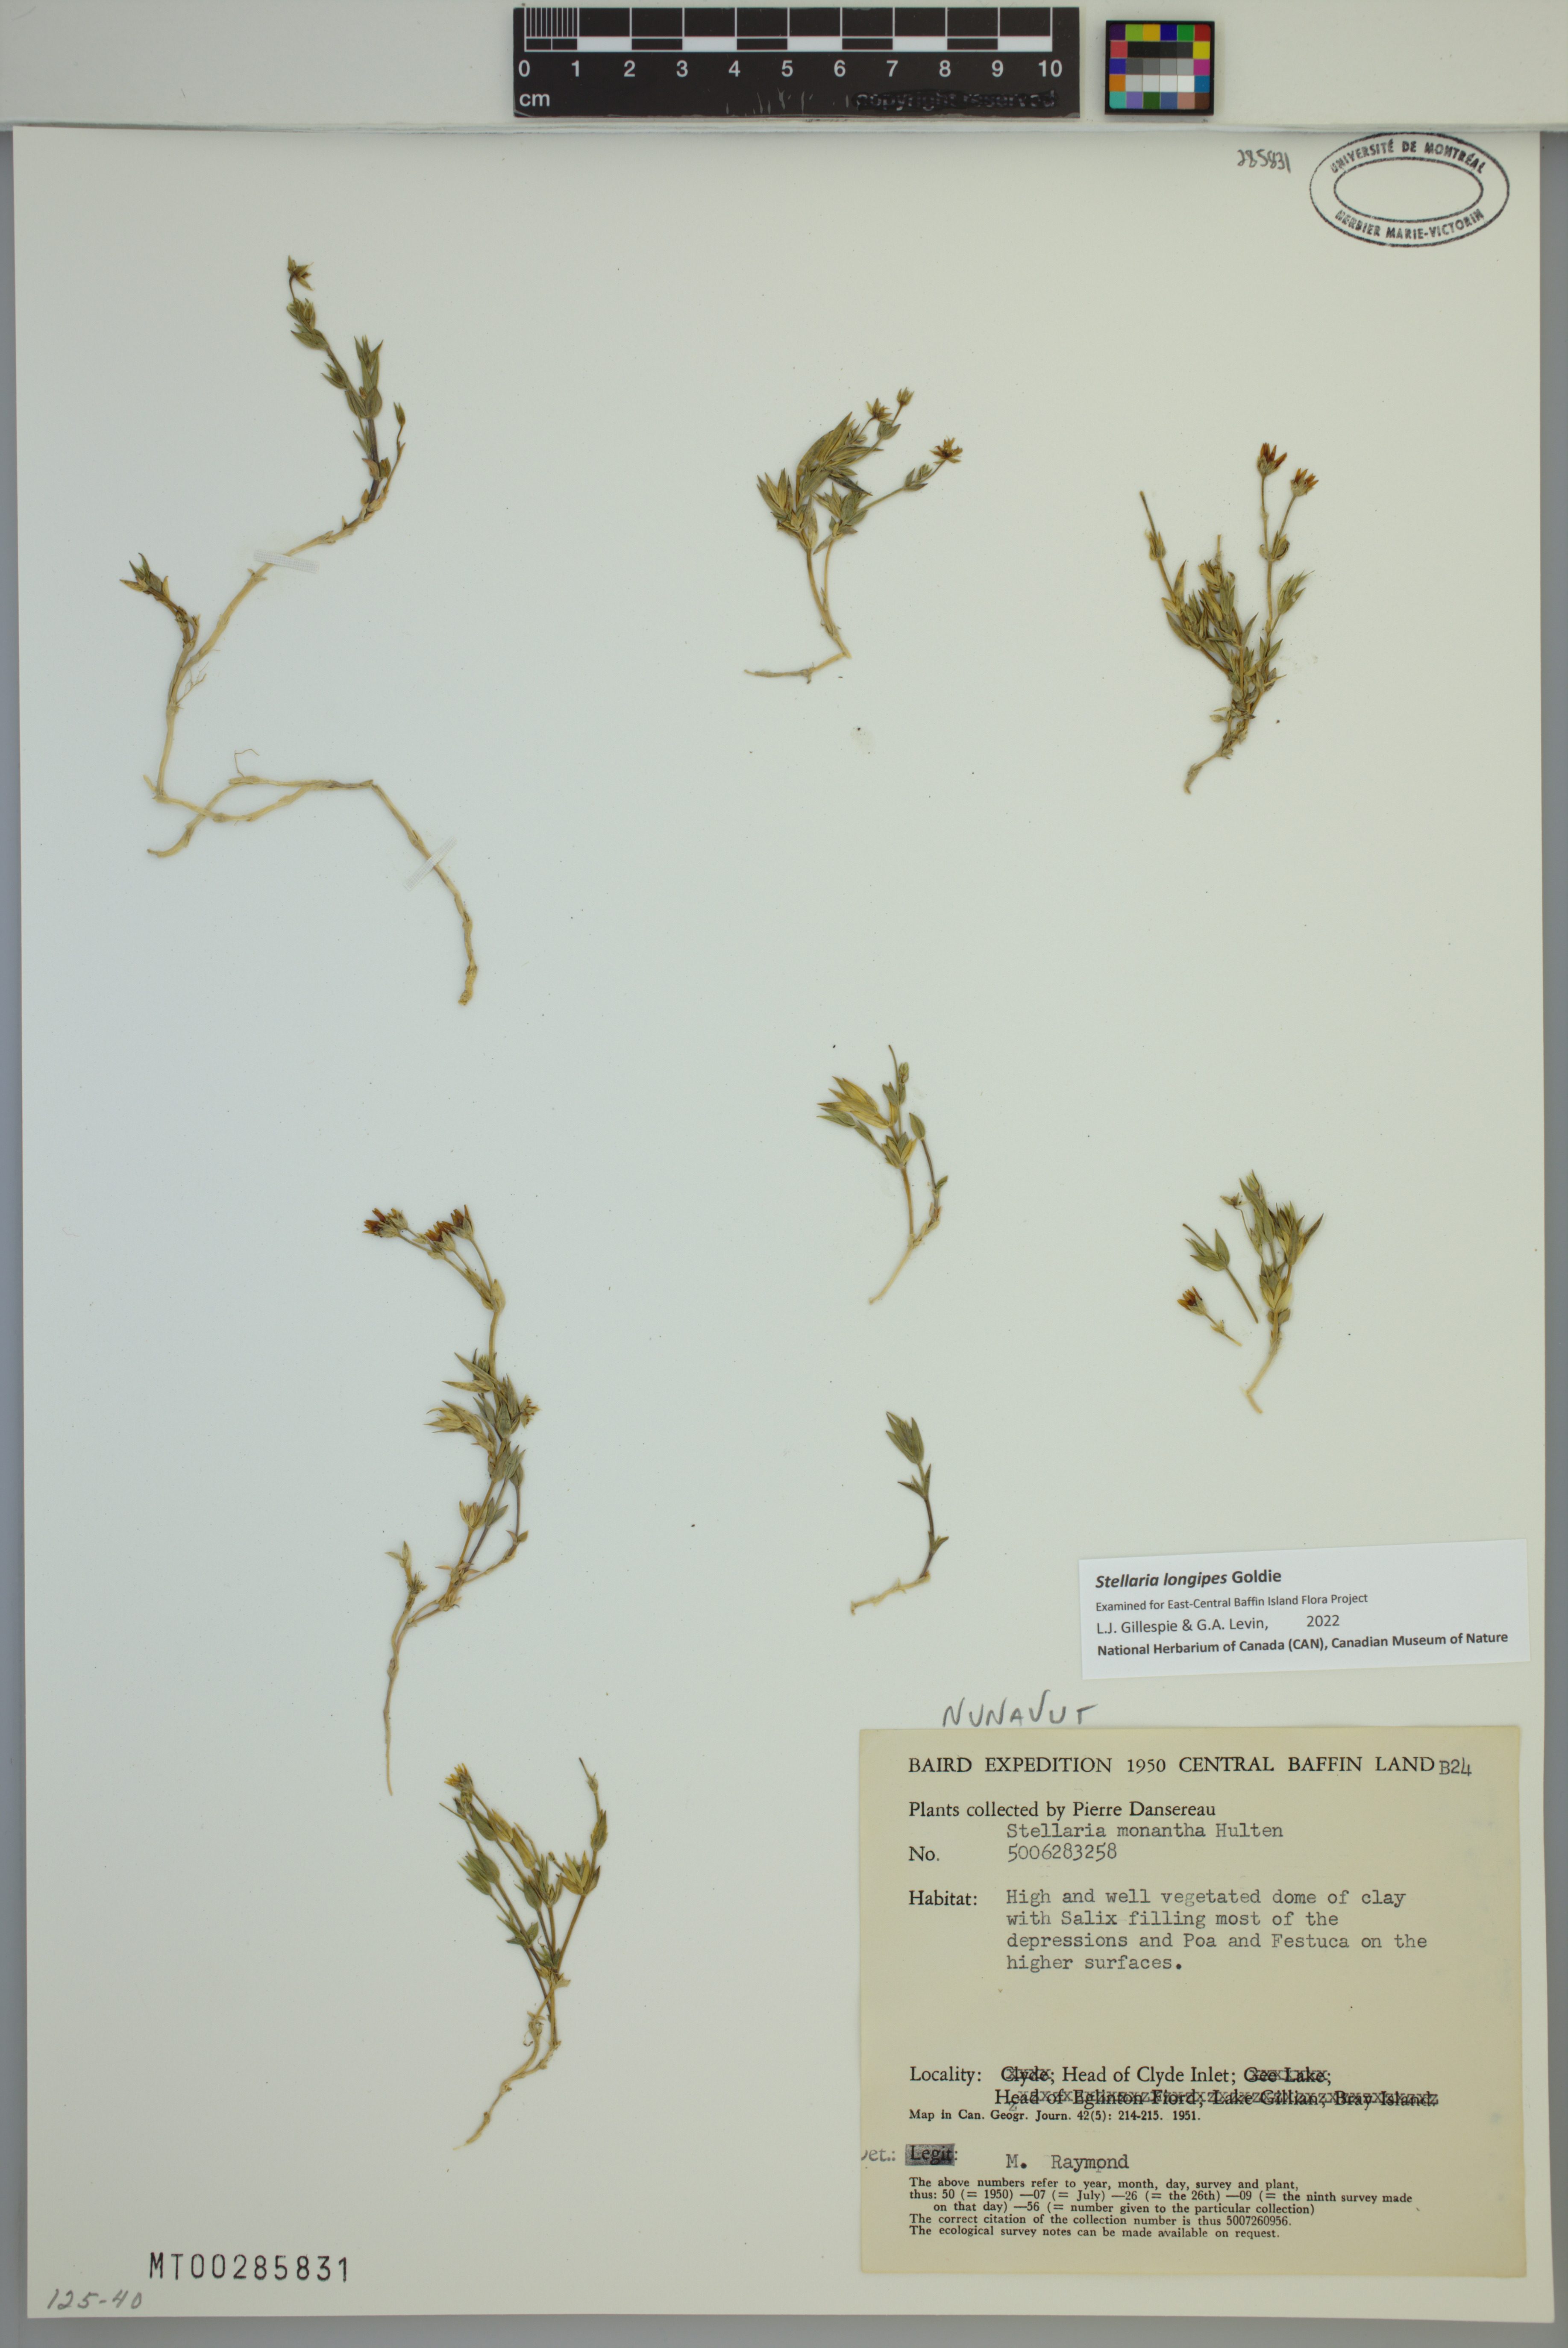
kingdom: Plantae
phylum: Tracheophyta
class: Magnoliopsida
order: Caryophyllales
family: Caryophyllaceae
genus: Stellaria
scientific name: Stellaria longipes
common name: Goldie's starwort
